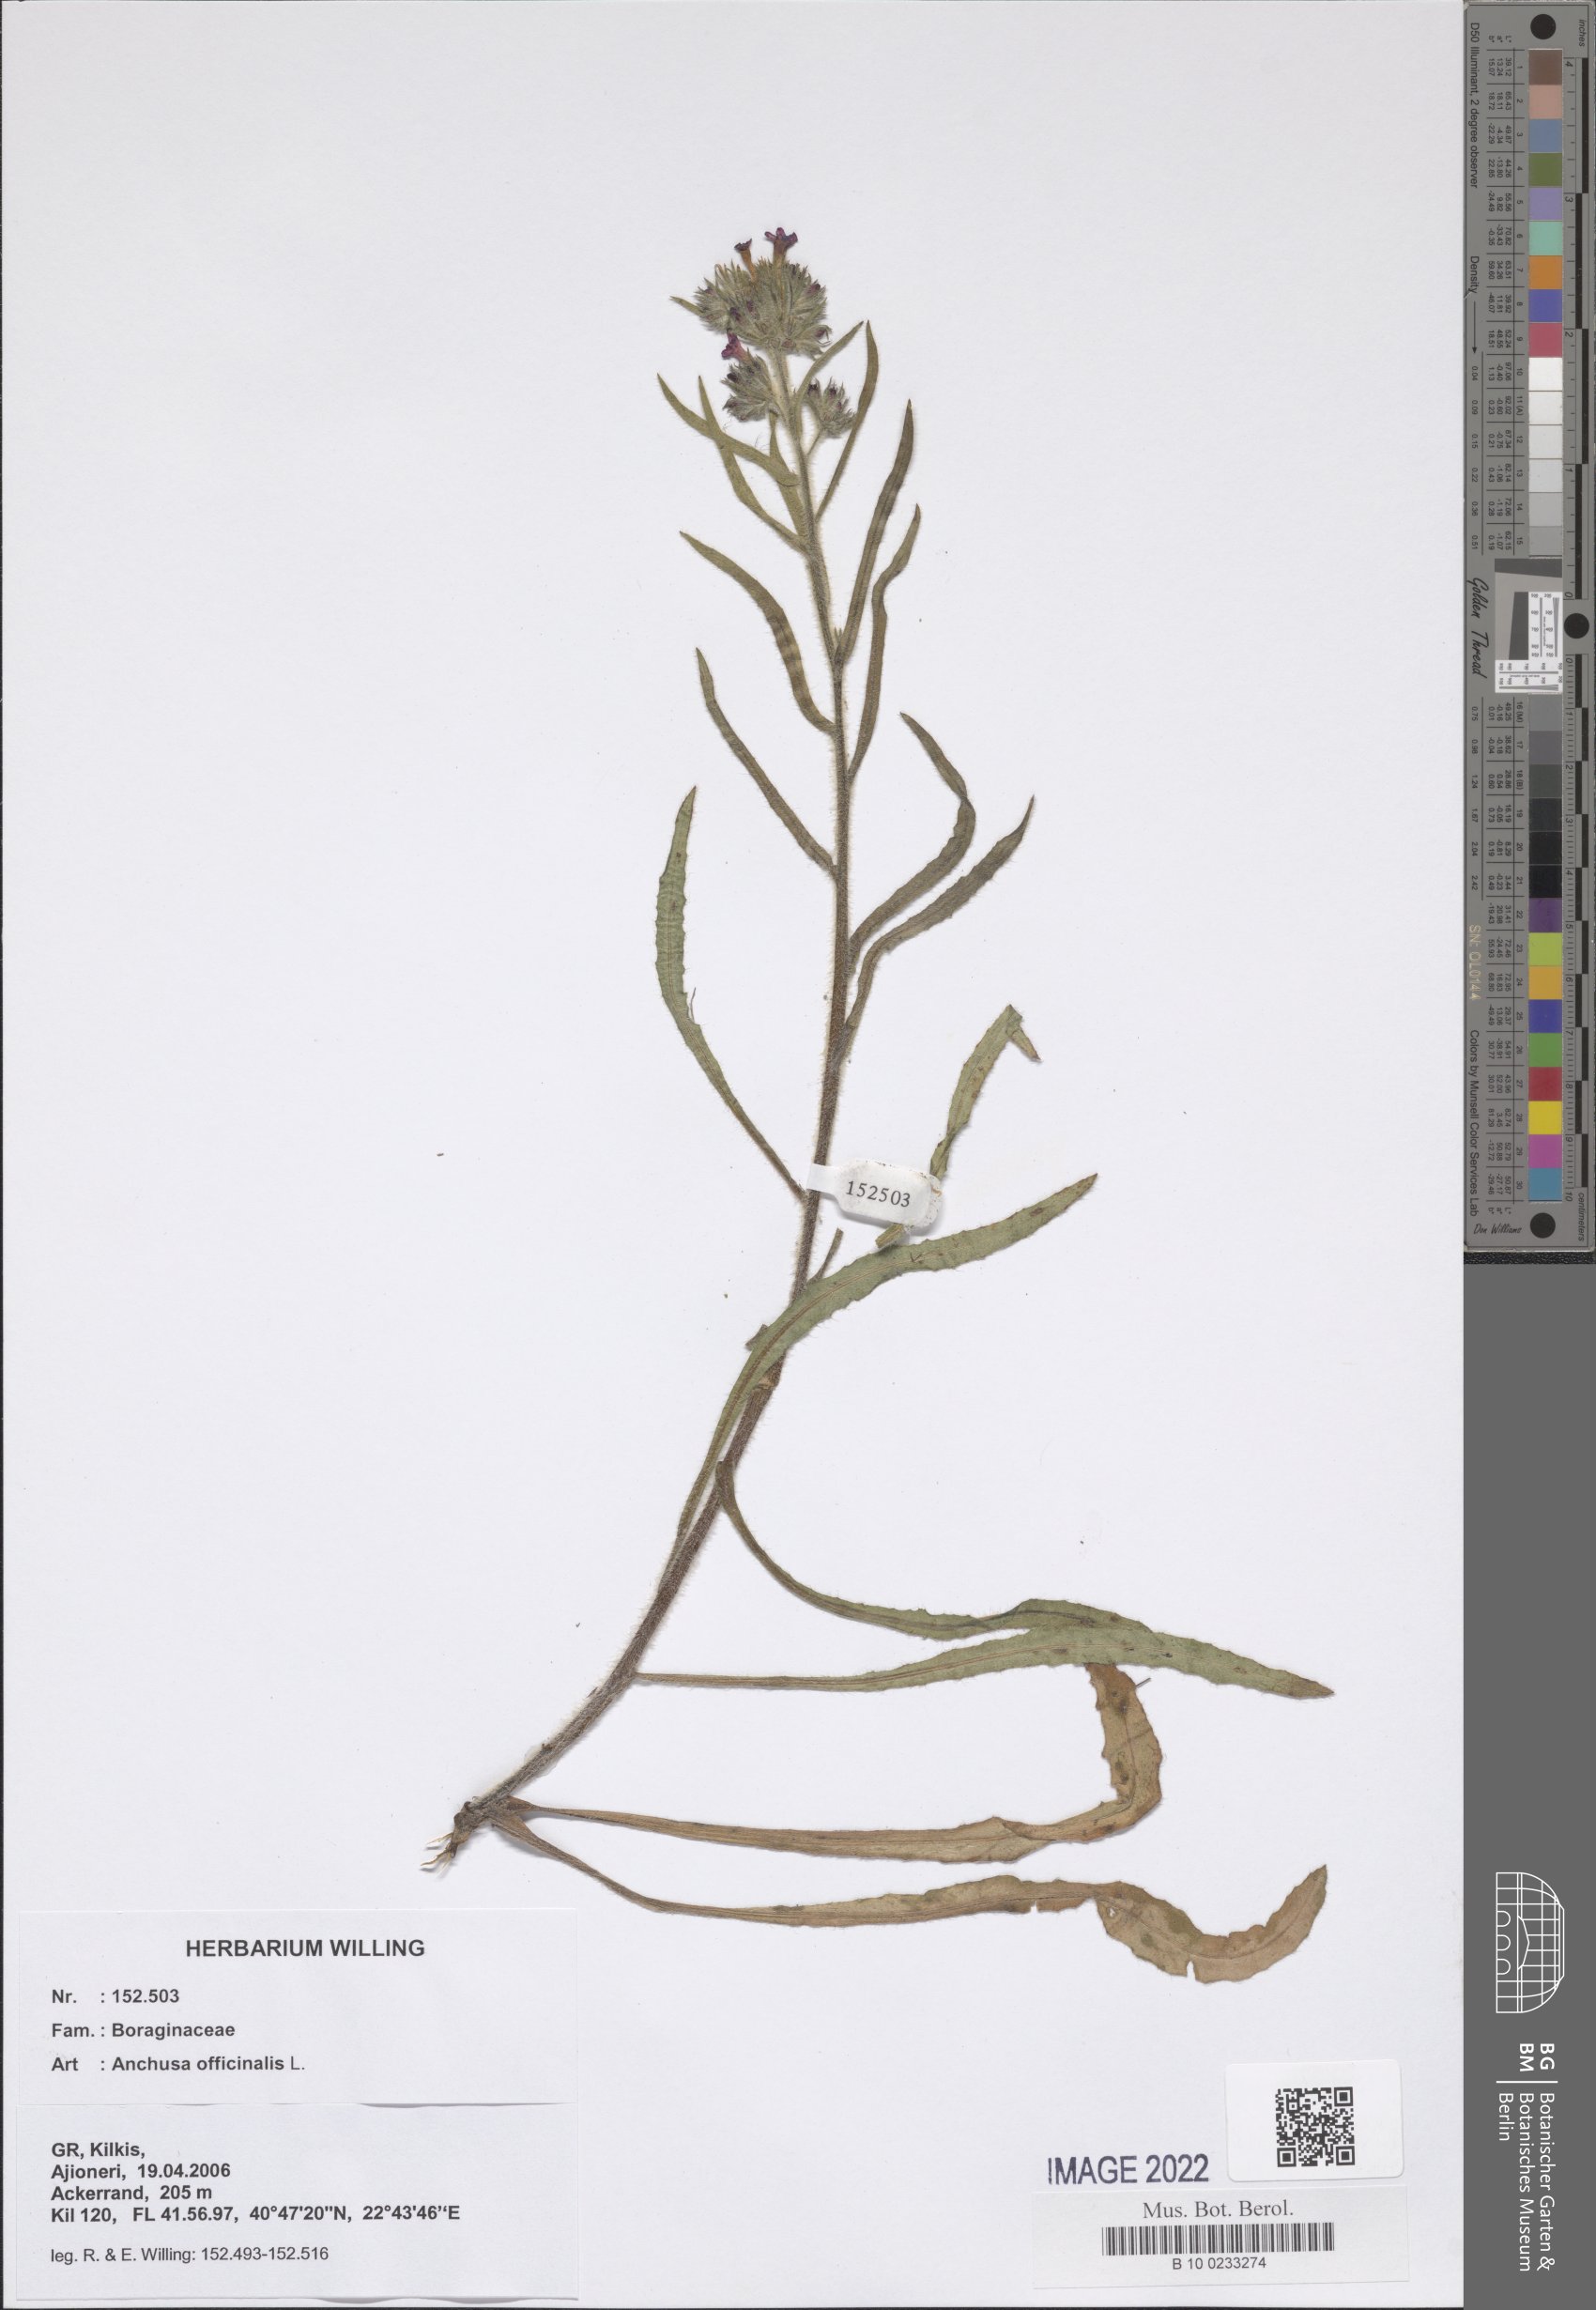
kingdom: Plantae
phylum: Tracheophyta
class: Magnoliopsida
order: Boraginales
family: Boraginaceae
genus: Anchusa
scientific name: Anchusa officinalis
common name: Alkanet
